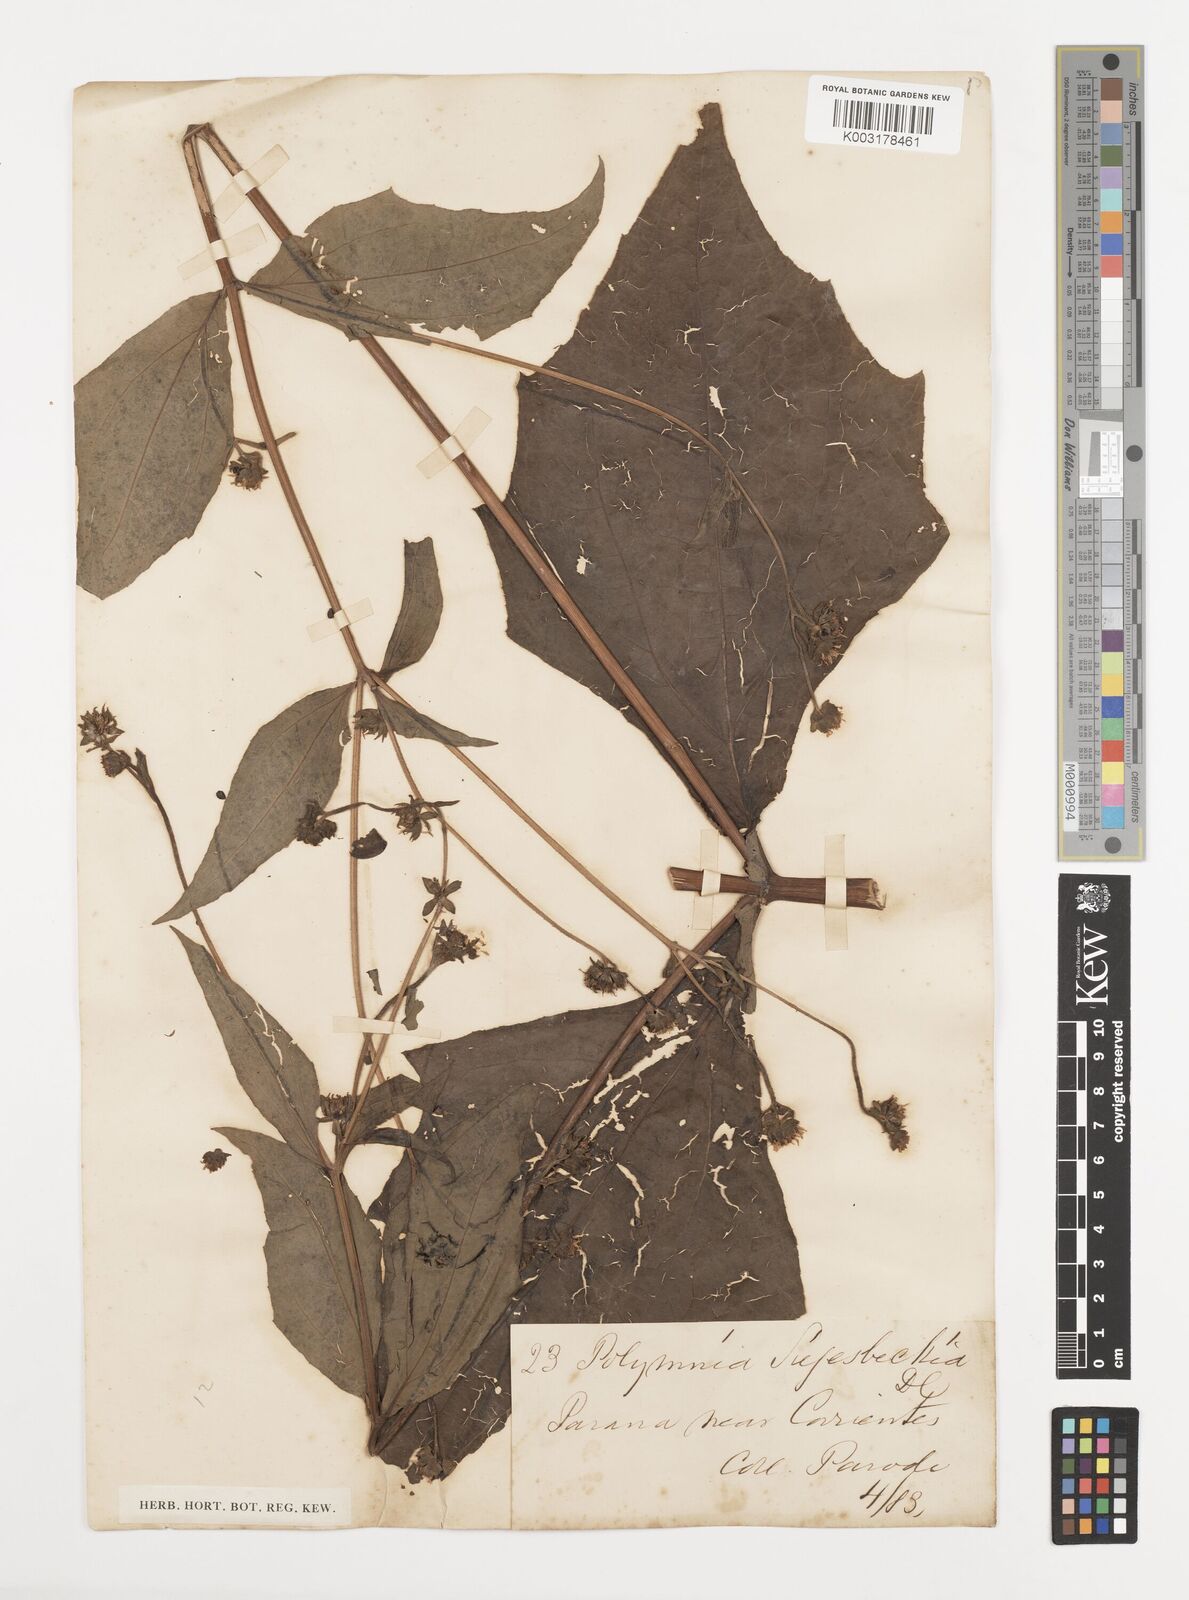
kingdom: Plantae
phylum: Tracheophyta
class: Magnoliopsida
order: Asterales
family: Asteraceae
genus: Smallanthus
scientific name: Smallanthus siegesbeckius
